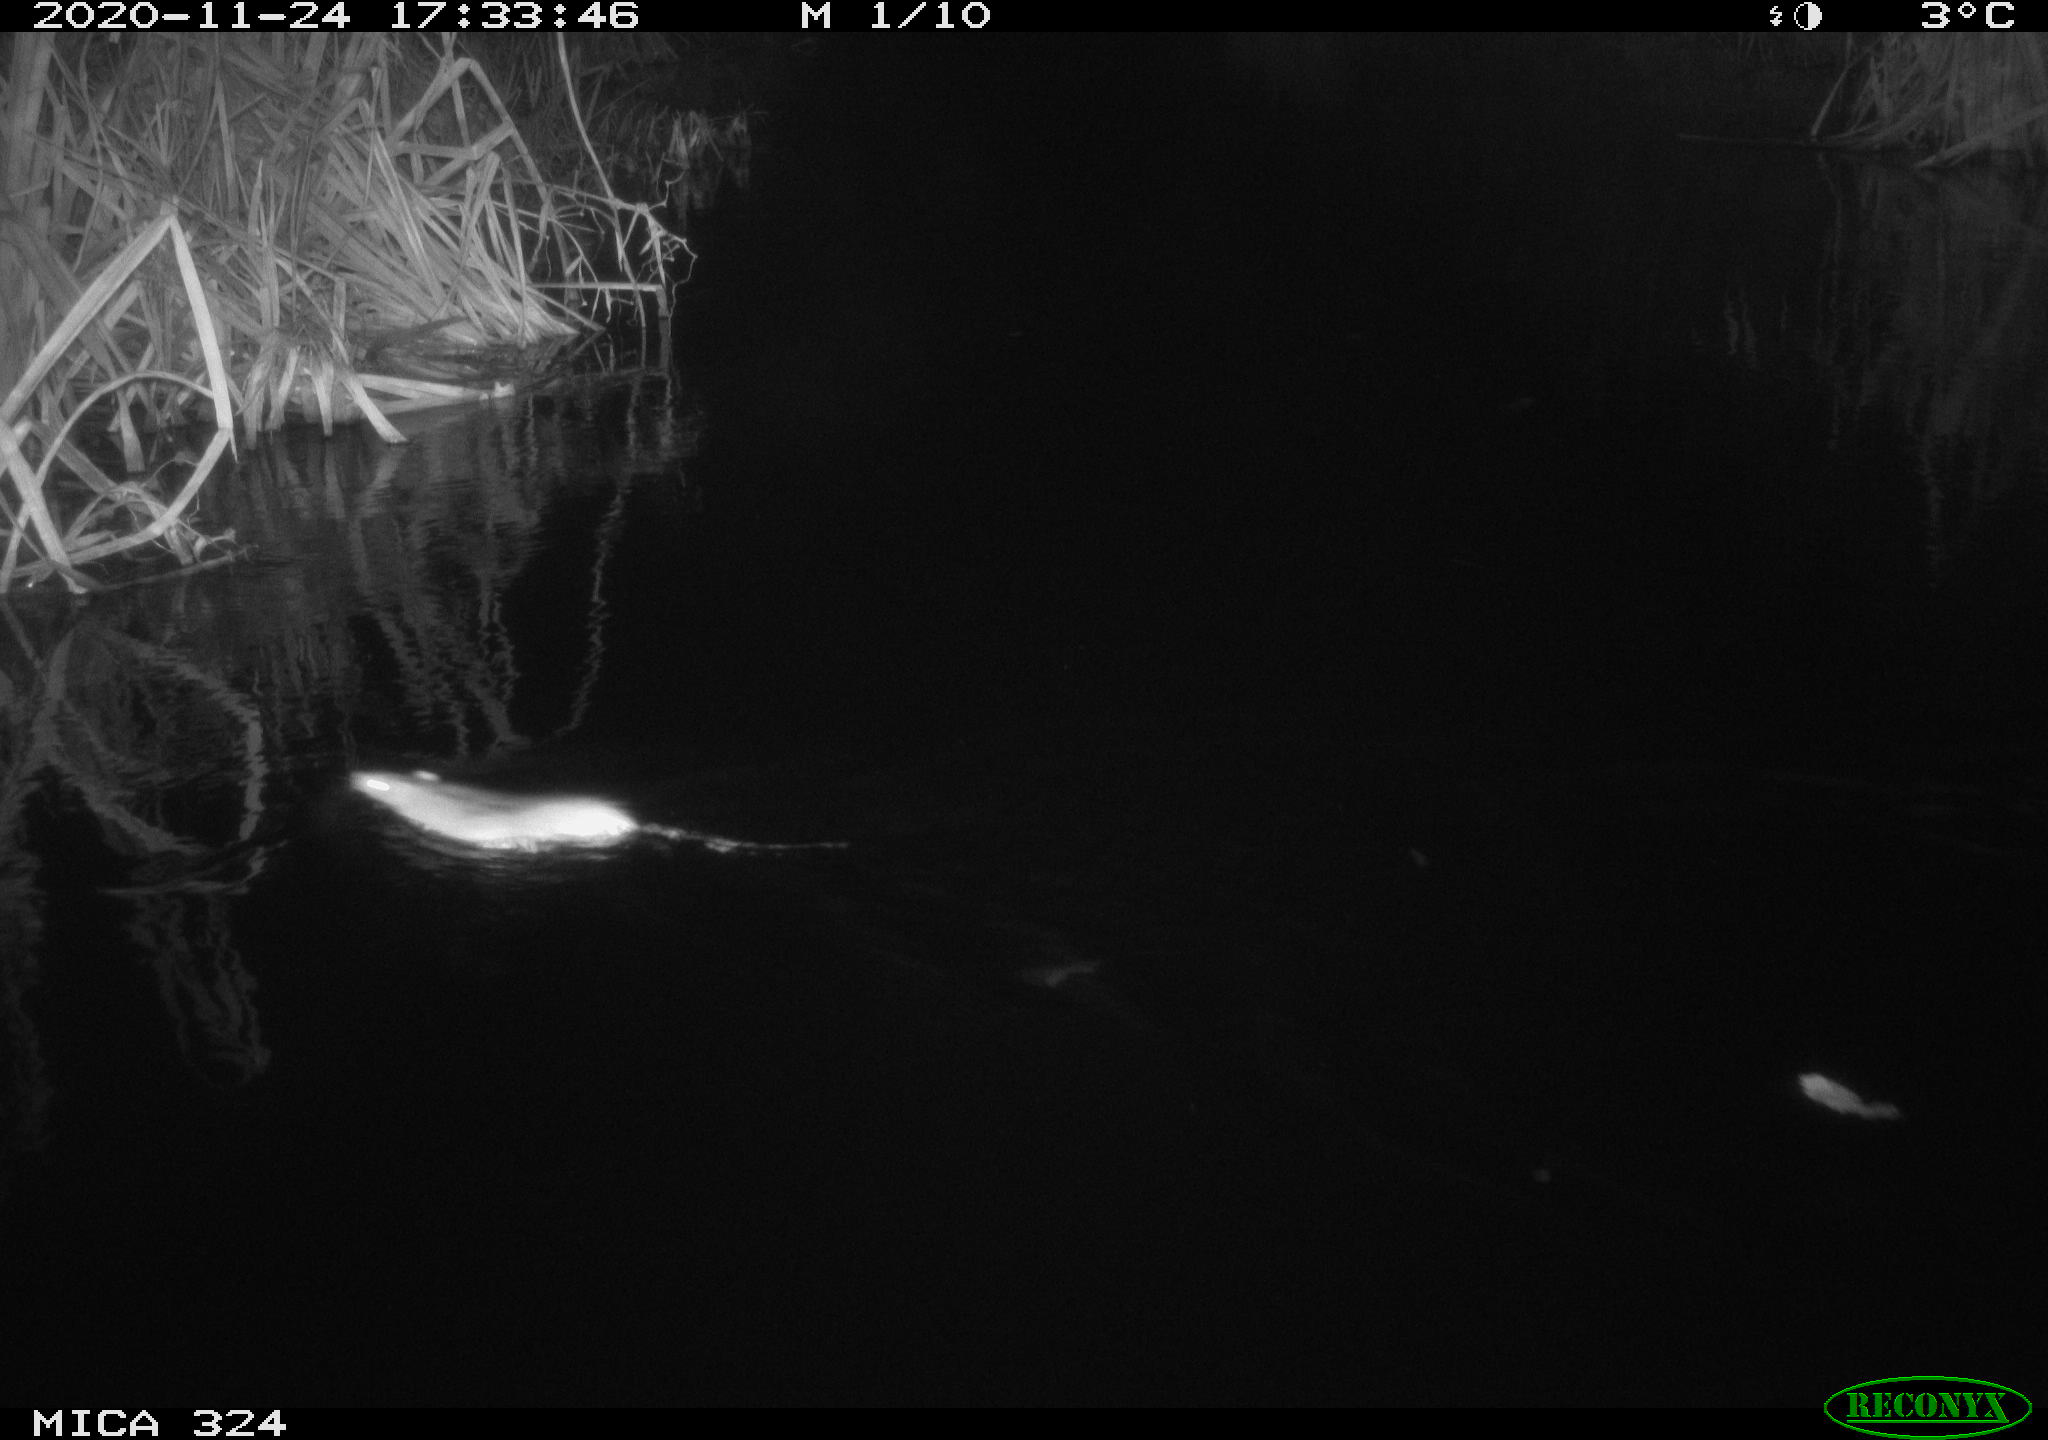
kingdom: Animalia
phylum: Chordata
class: Mammalia
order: Rodentia
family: Muridae
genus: Rattus
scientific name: Rattus norvegicus
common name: Brown rat
